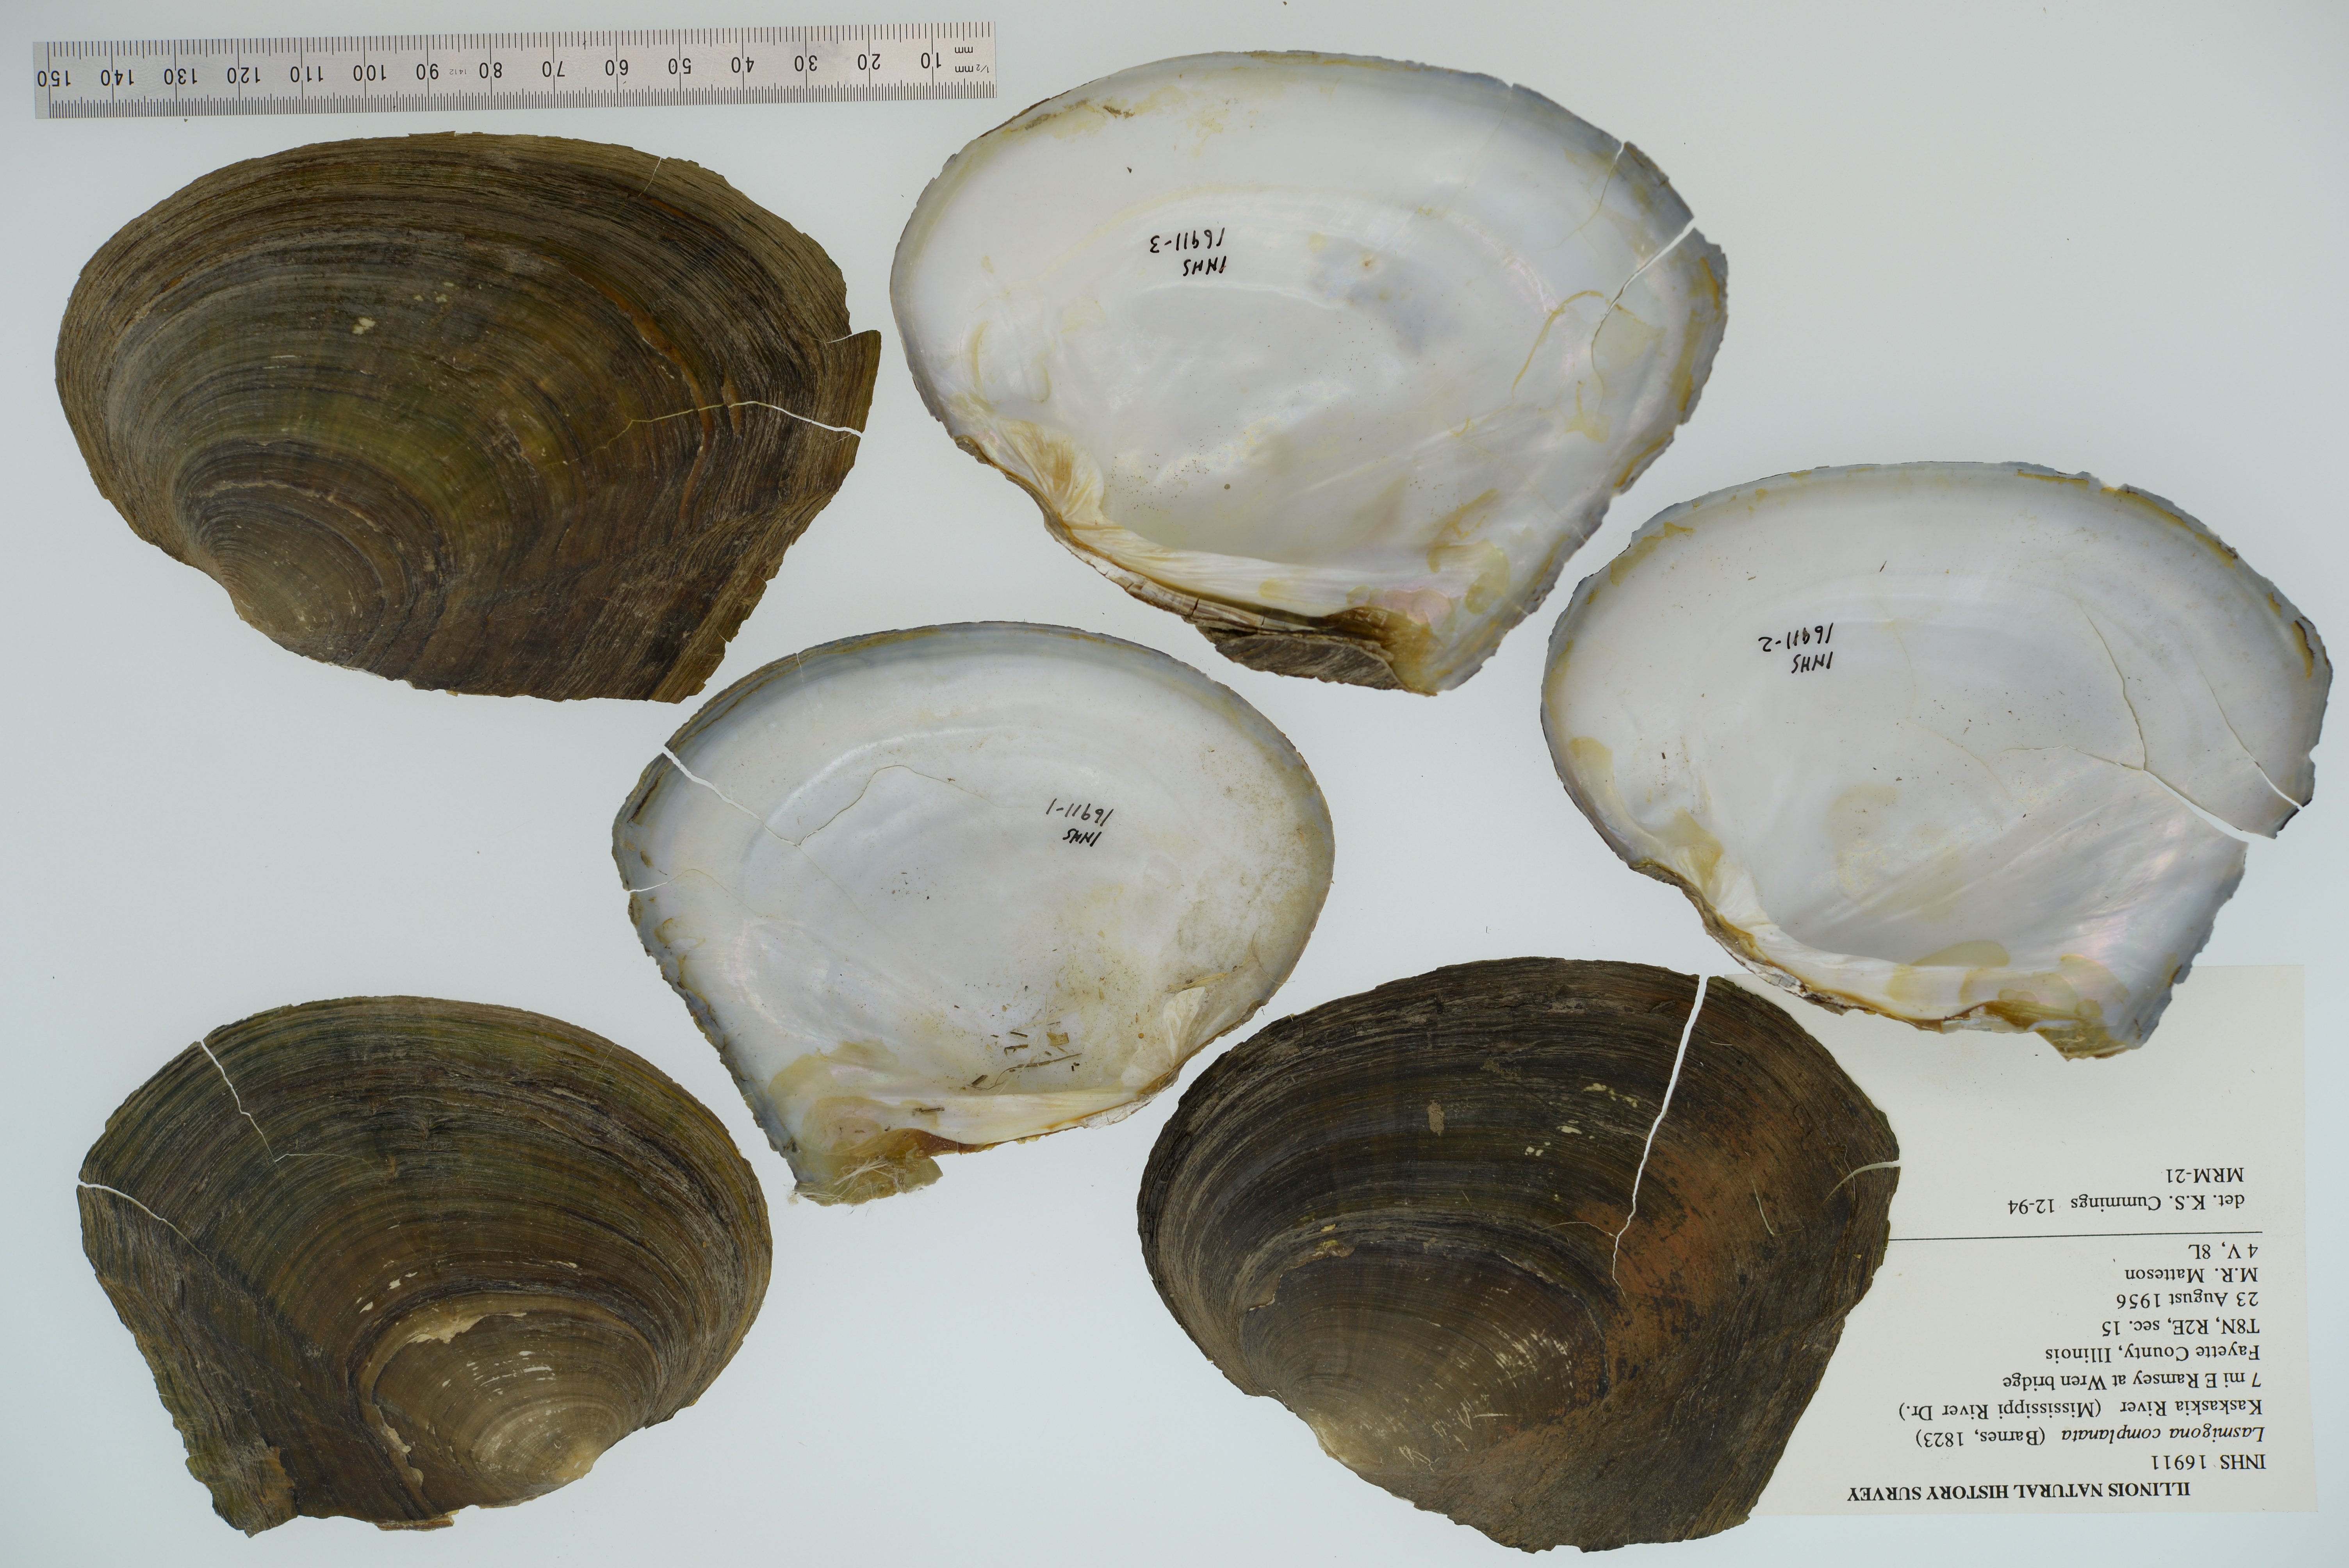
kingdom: Animalia
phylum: Mollusca
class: Bivalvia
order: Unionida
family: Unionidae
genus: Lasmigona
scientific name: Lasmigona complanata
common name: White heelsplitter
